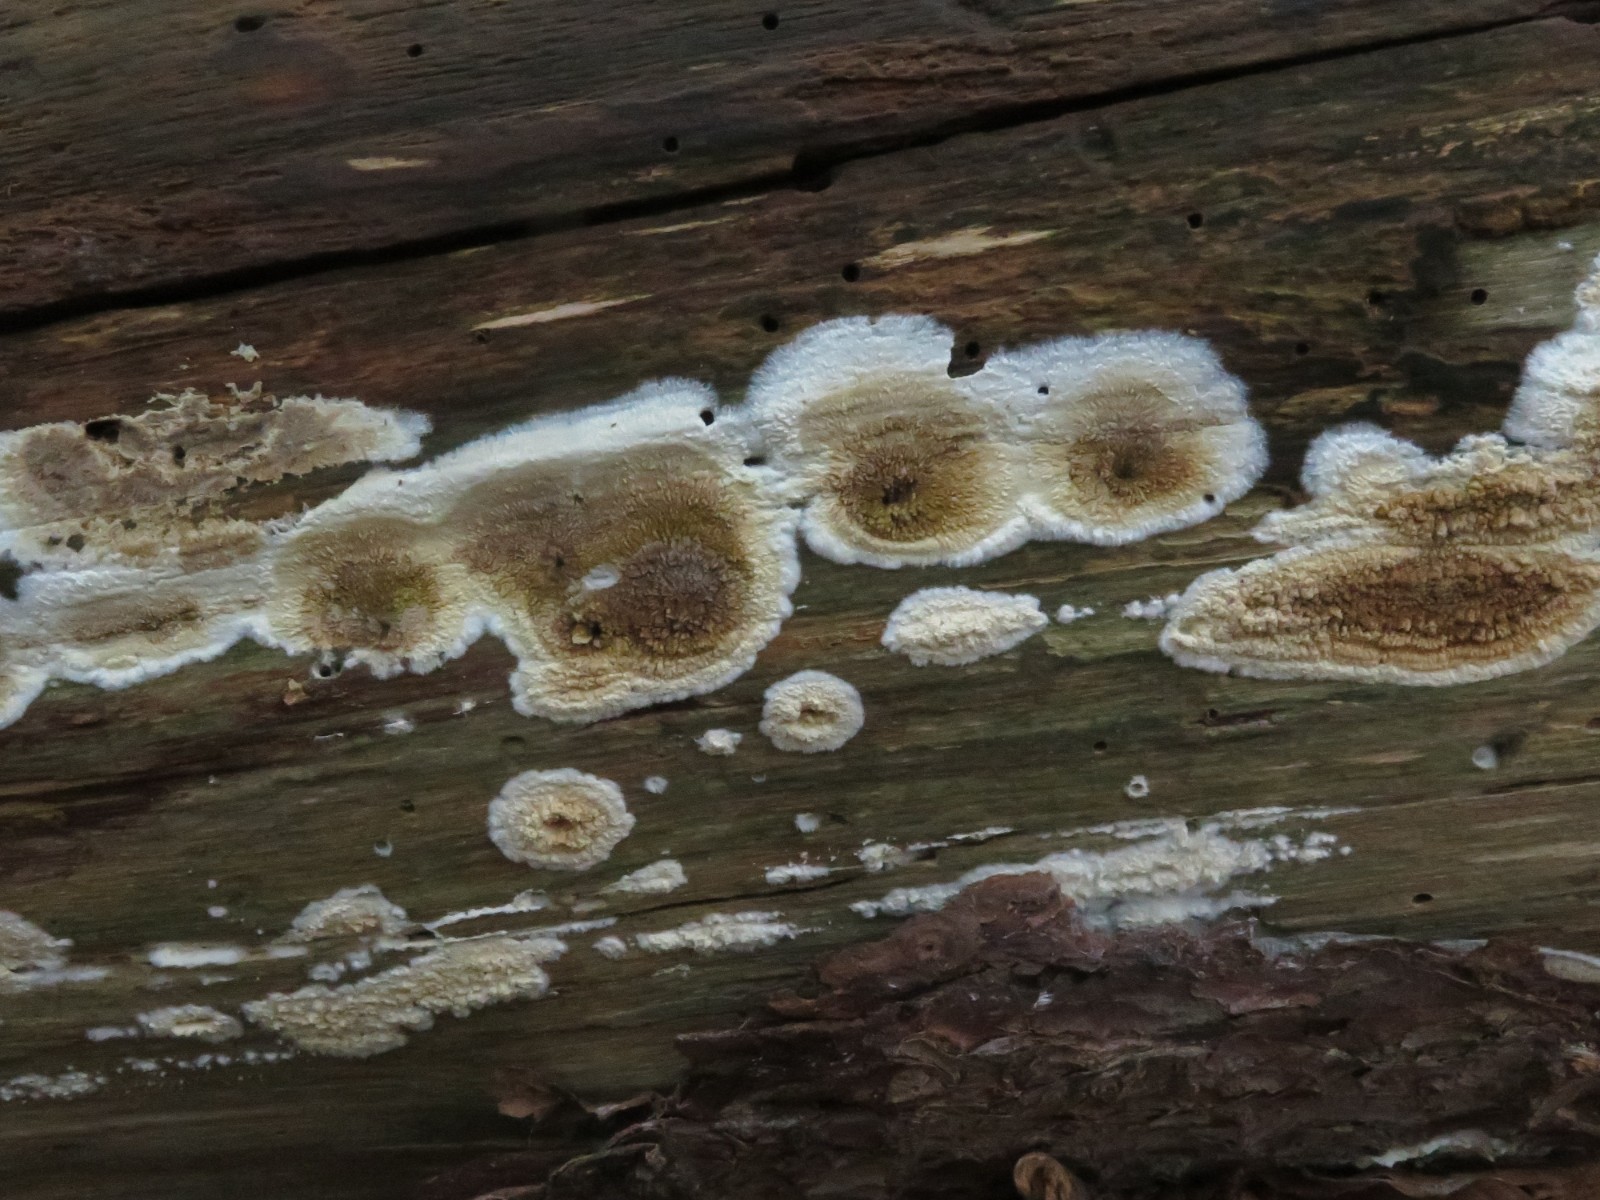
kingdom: Fungi
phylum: Basidiomycota
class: Agaricomycetes
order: Boletales
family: Coniophoraceae
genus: Coniophora
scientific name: Coniophora puteana
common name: gul tømmersvamp
